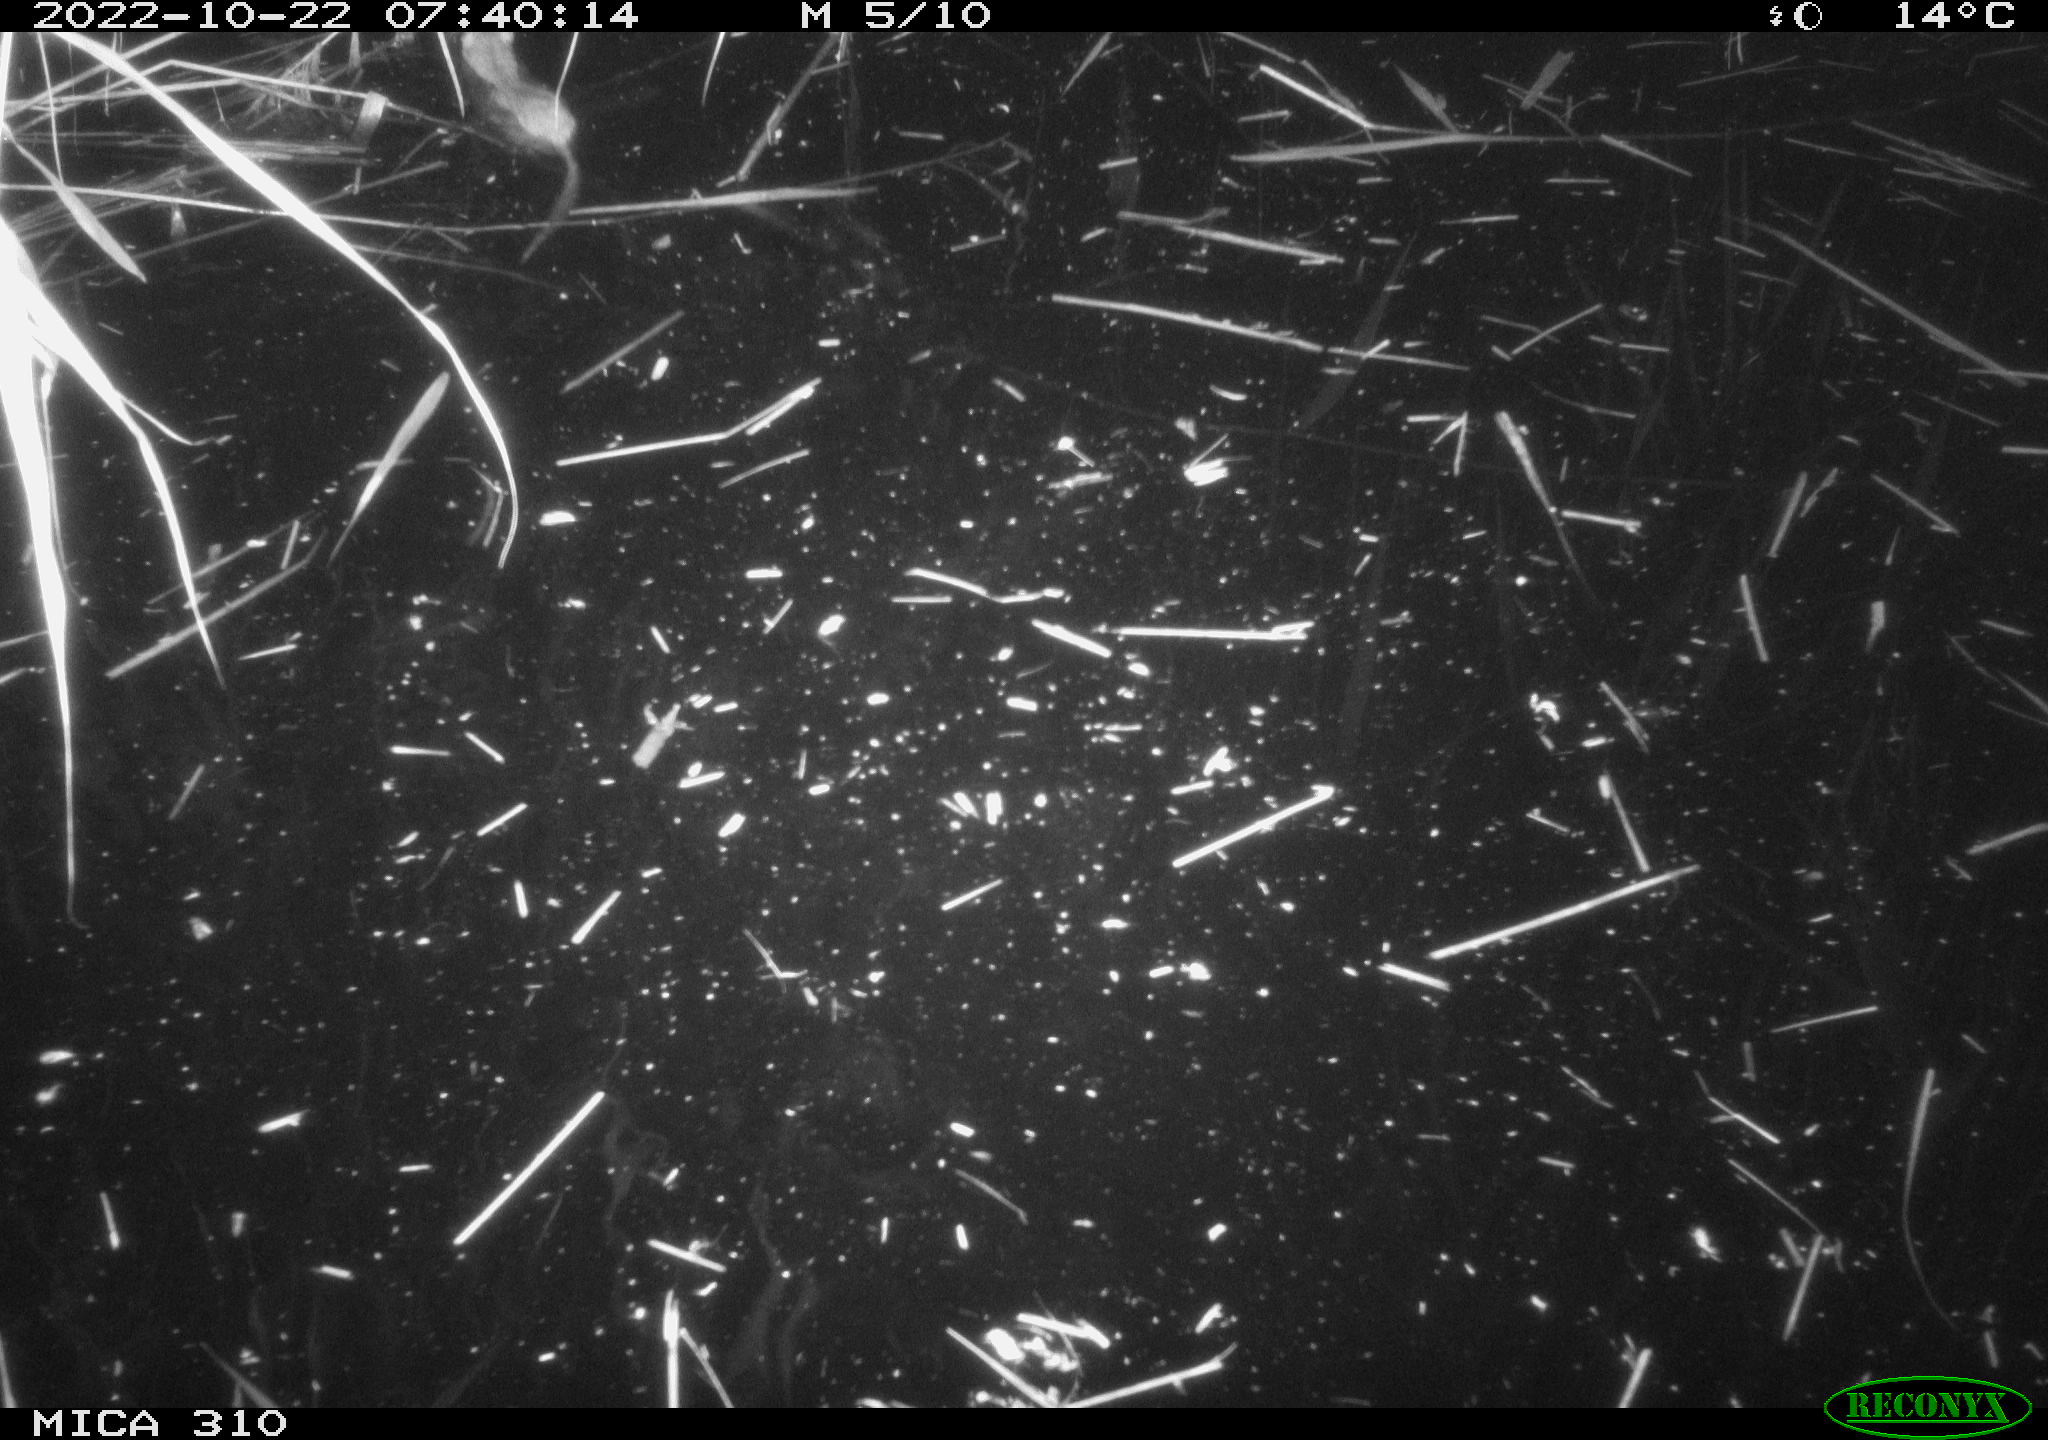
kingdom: Animalia
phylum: Chordata
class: Mammalia
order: Rodentia
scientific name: Rodentia
